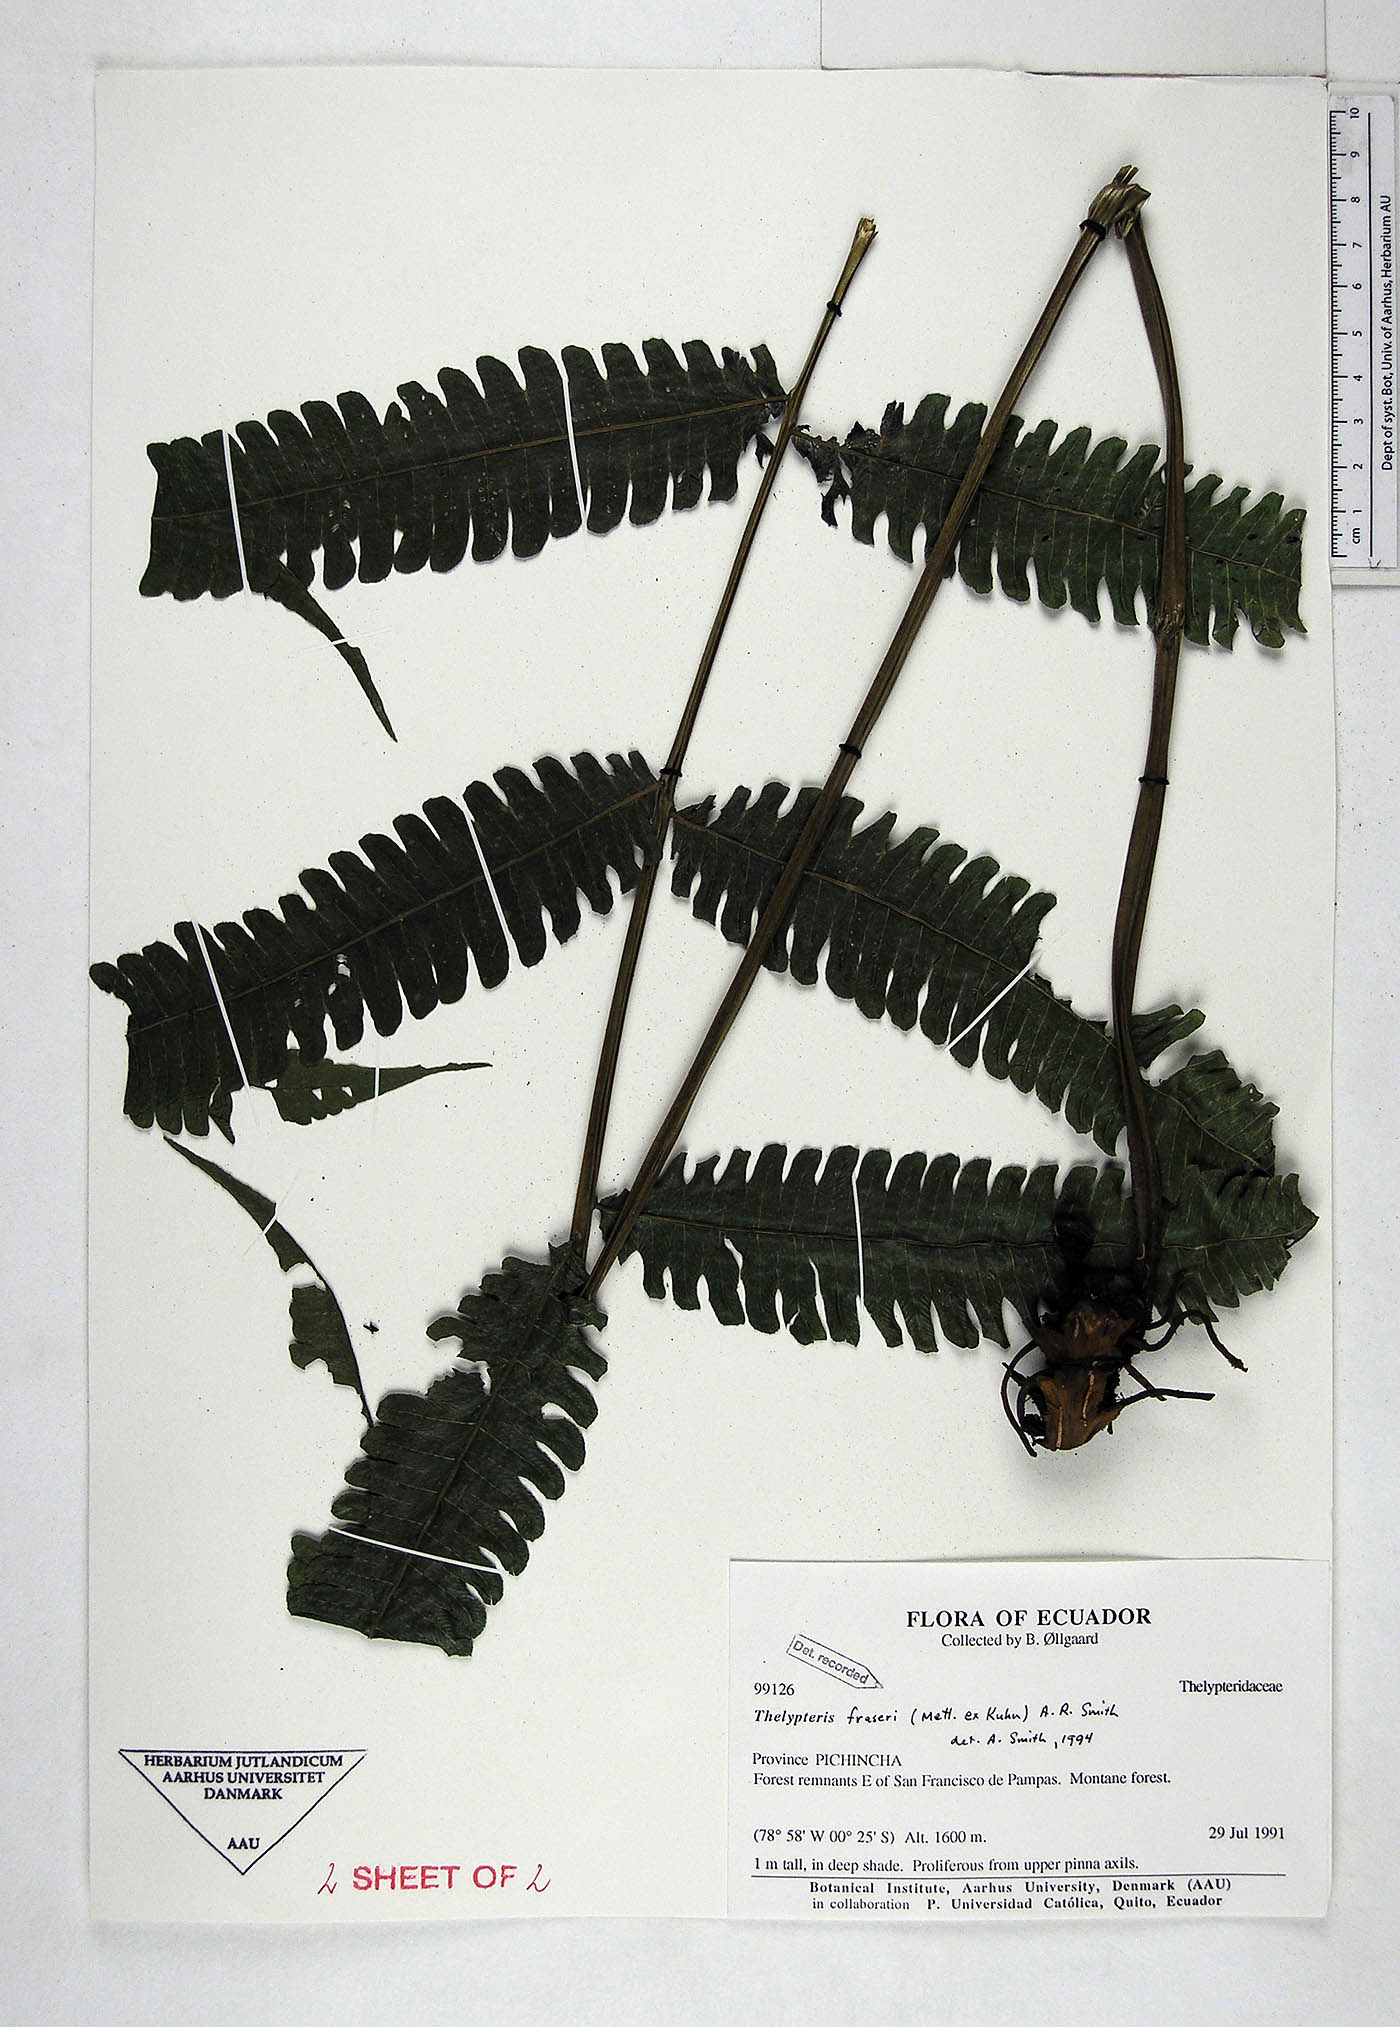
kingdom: Plantae
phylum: Tracheophyta
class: Polypodiopsida
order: Polypodiales
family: Thelypteridaceae
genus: Goniopteris
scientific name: Goniopteris fraseri
